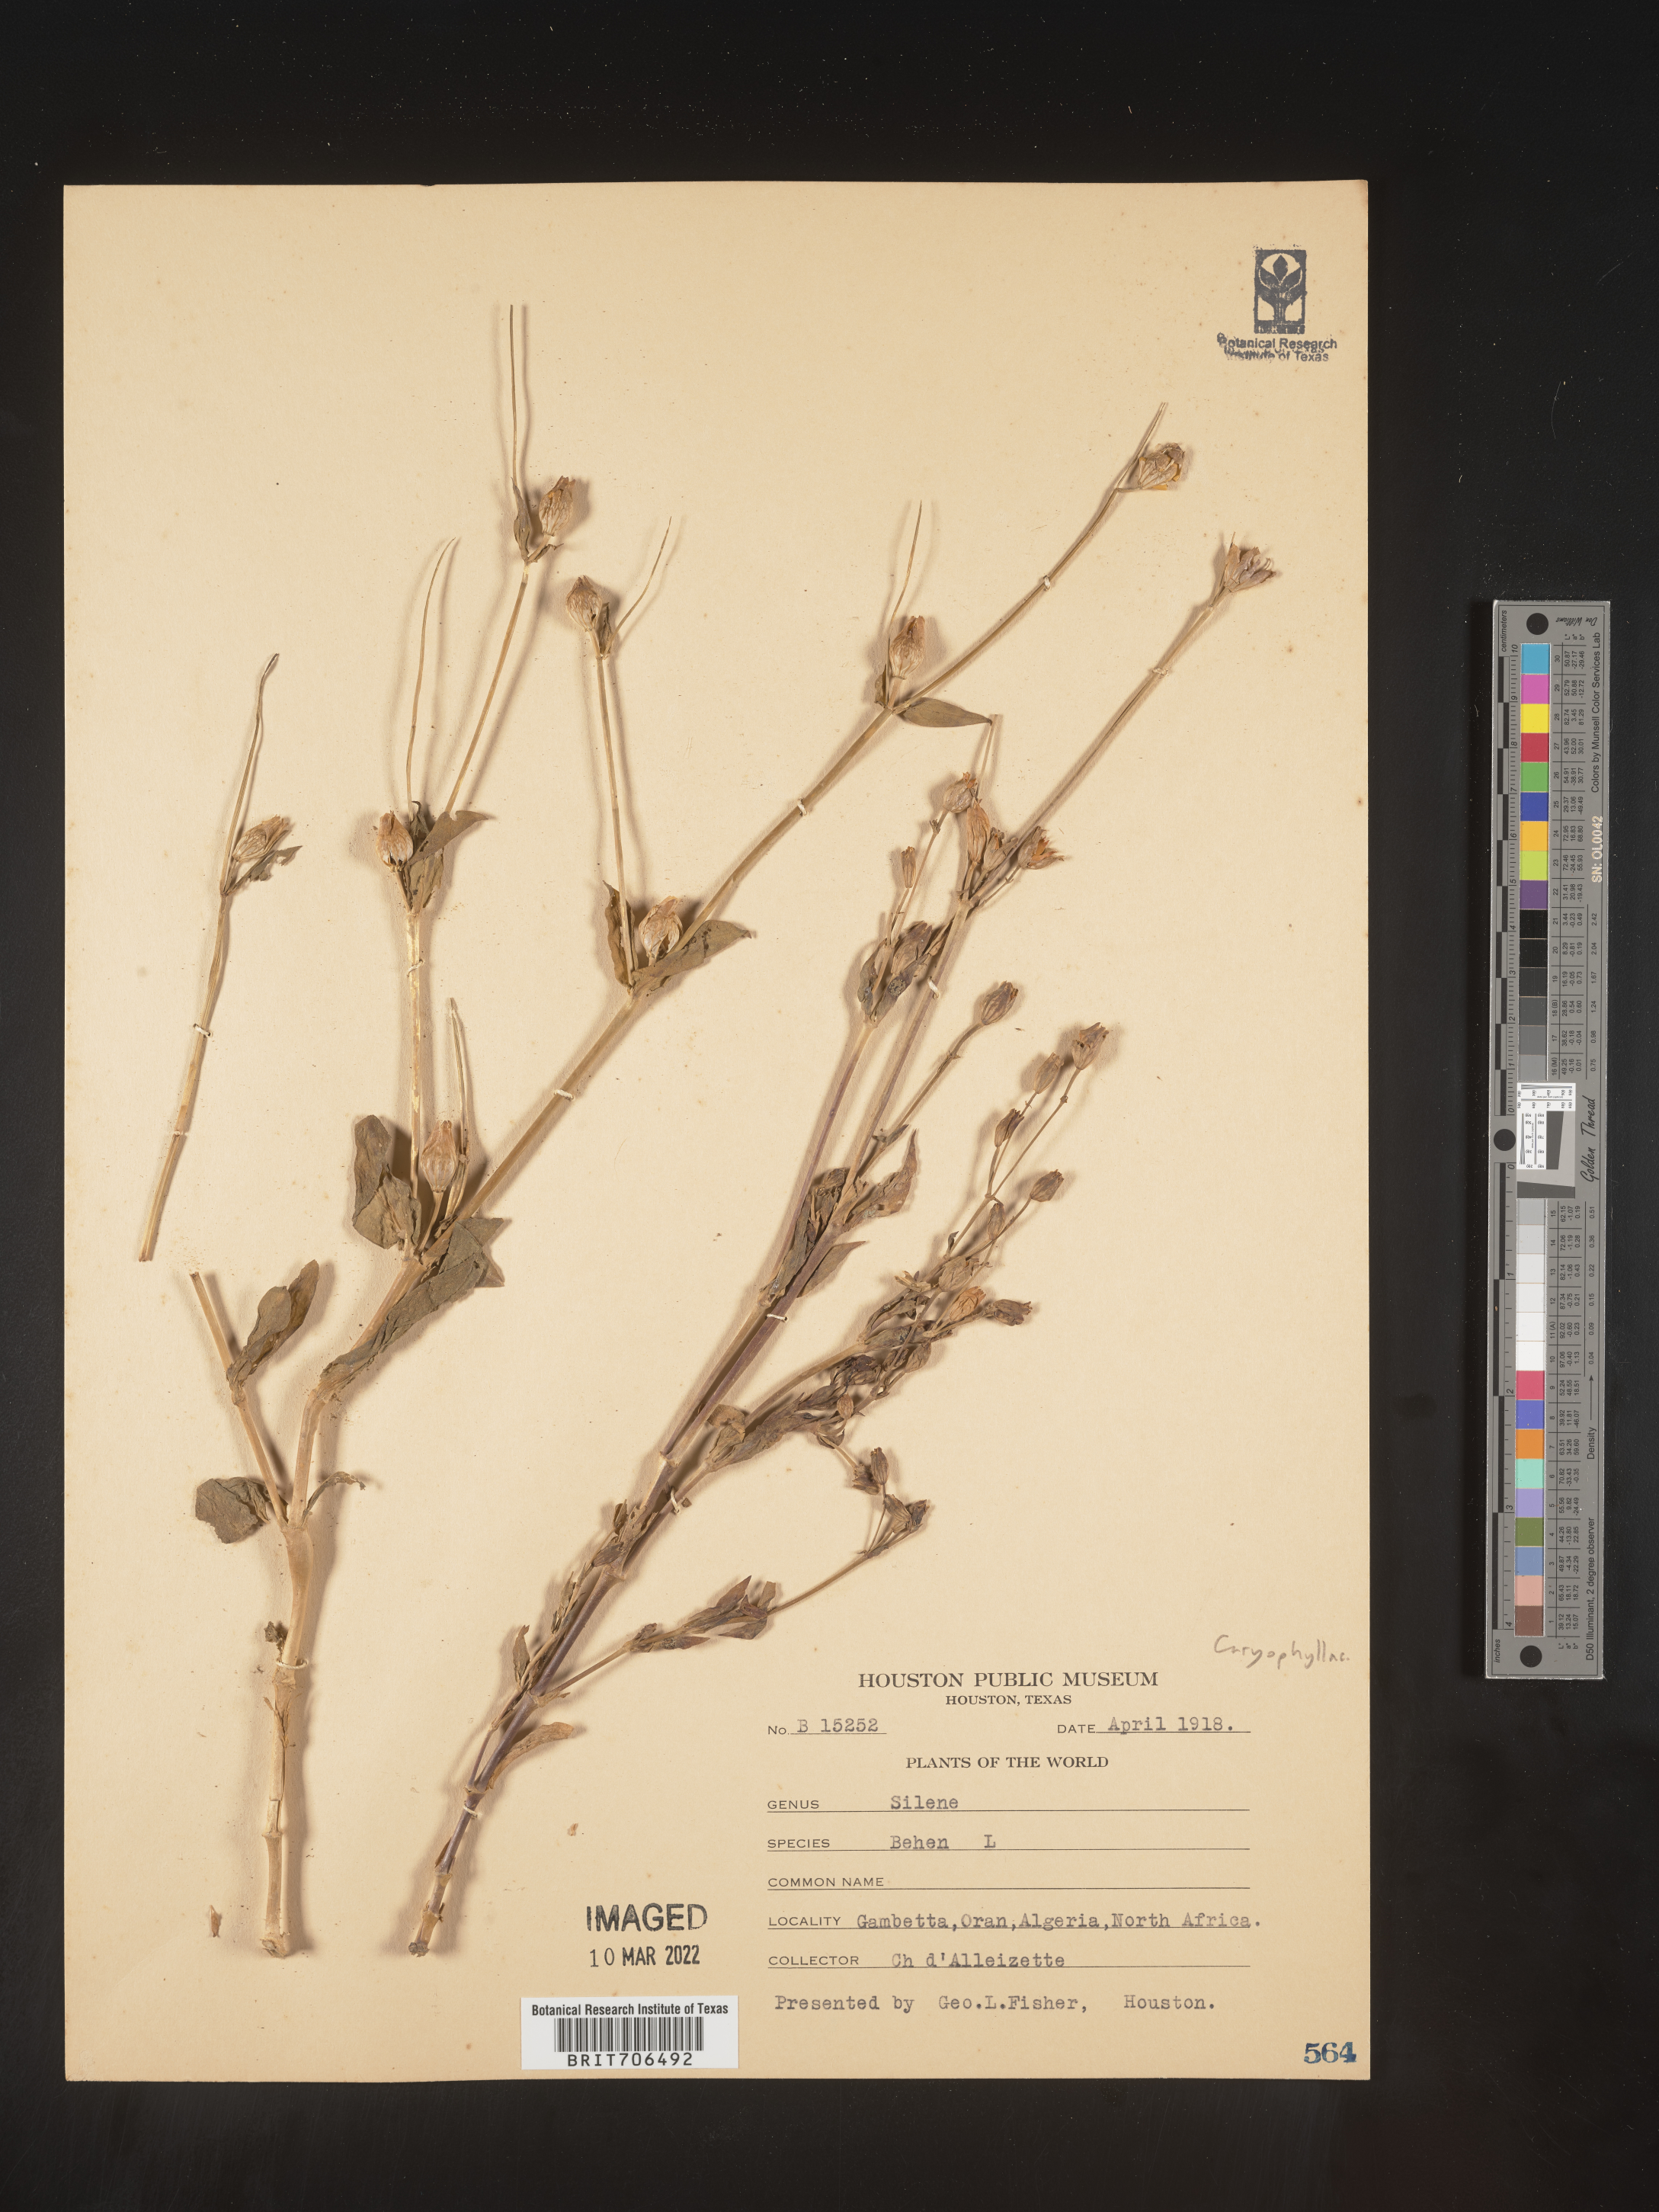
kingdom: Plantae
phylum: Tracheophyta
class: Magnoliopsida
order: Caryophyllales
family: Caryophyllaceae
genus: Silene
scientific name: Silene
